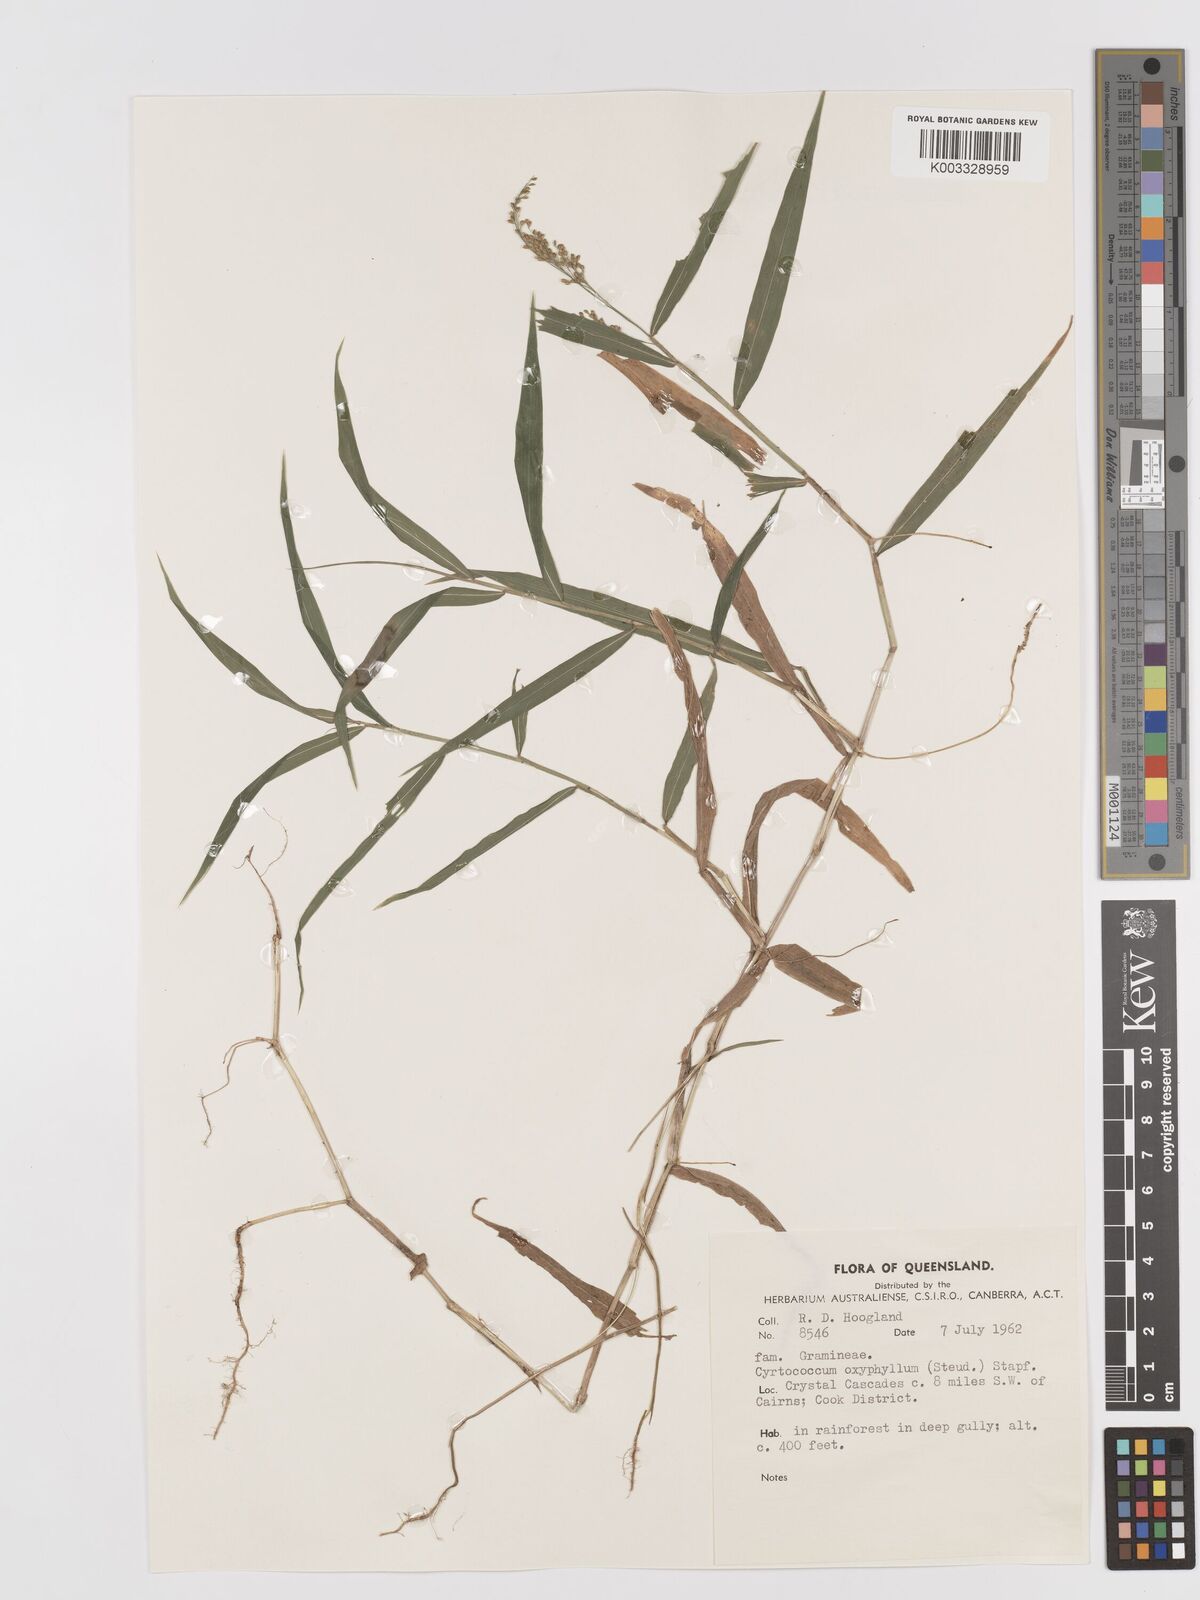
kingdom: Plantae
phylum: Tracheophyta
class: Liliopsida
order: Poales
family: Poaceae
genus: Cyrtococcum
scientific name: Cyrtococcum oxyphyllum
